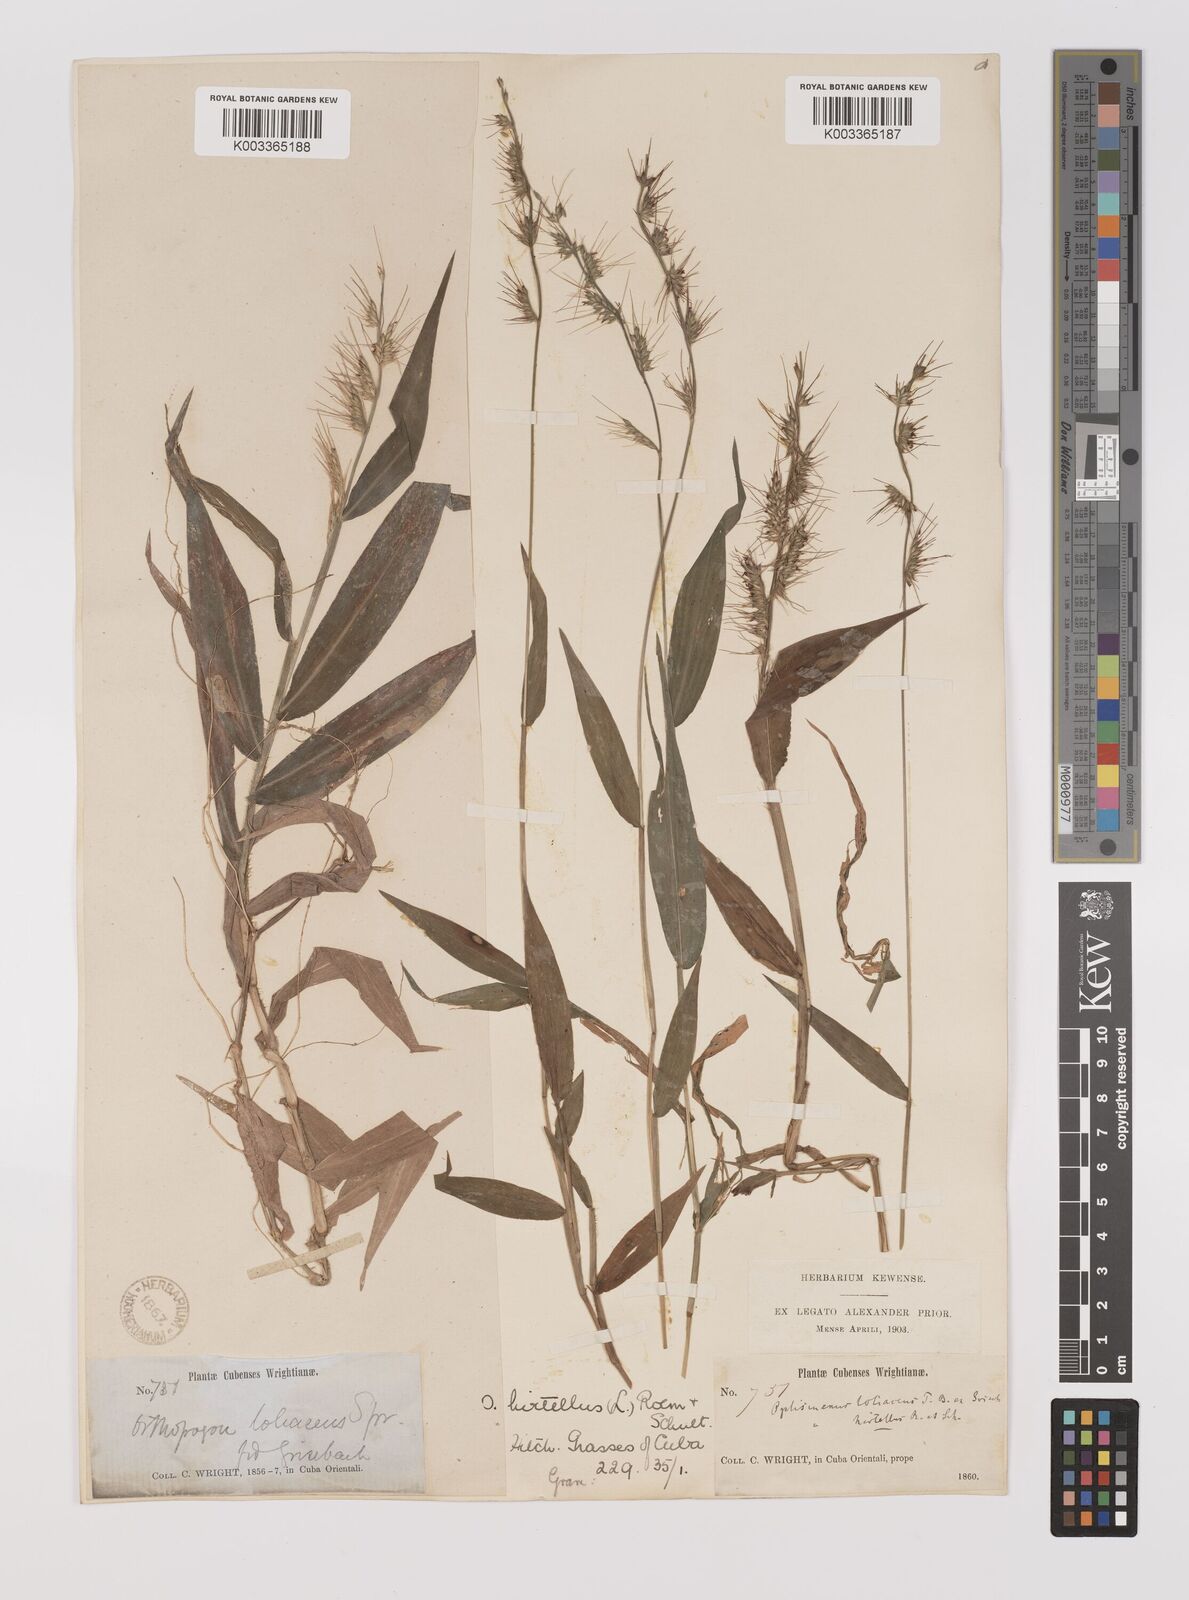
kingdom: Plantae
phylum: Tracheophyta
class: Liliopsida
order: Poales
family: Poaceae
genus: Oplismenus
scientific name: Oplismenus hirtellus
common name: Basketgrass
